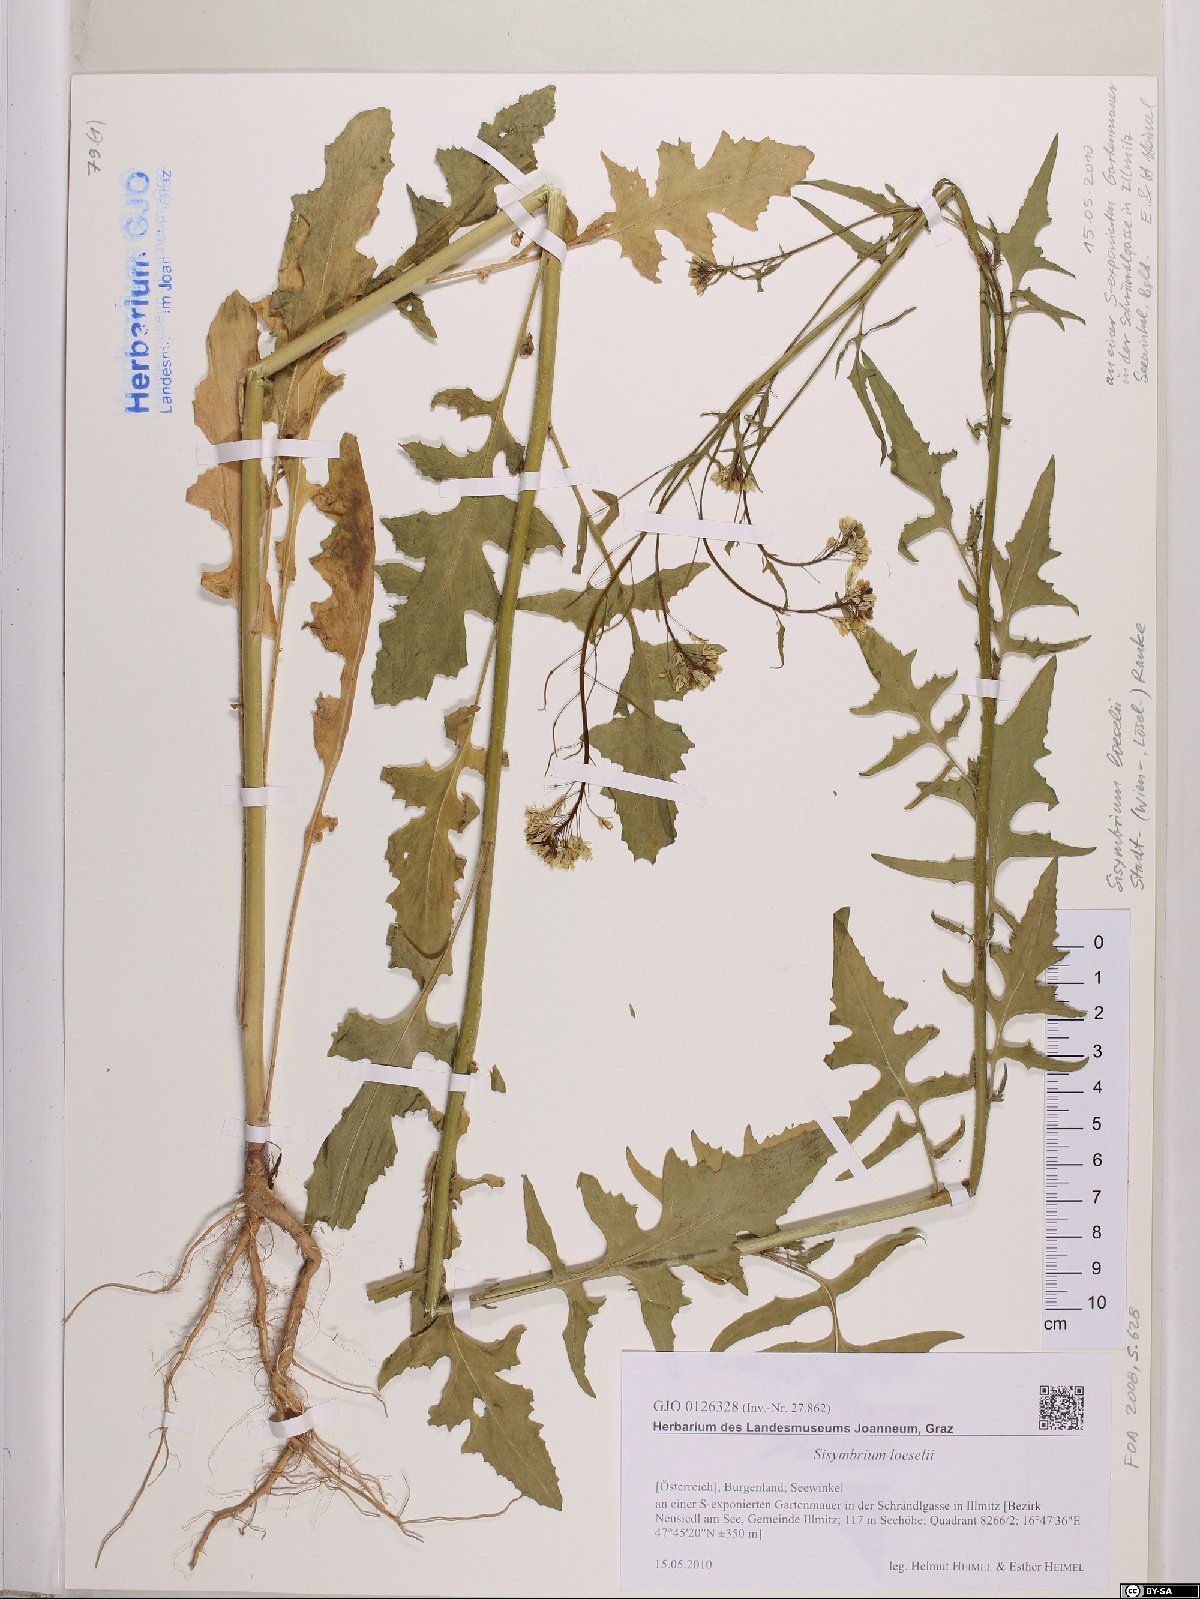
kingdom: Plantae
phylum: Tracheophyta
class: Magnoliopsida
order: Brassicales
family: Brassicaceae
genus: Sisymbrium
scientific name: Sisymbrium loeselii
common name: False london-rocket
